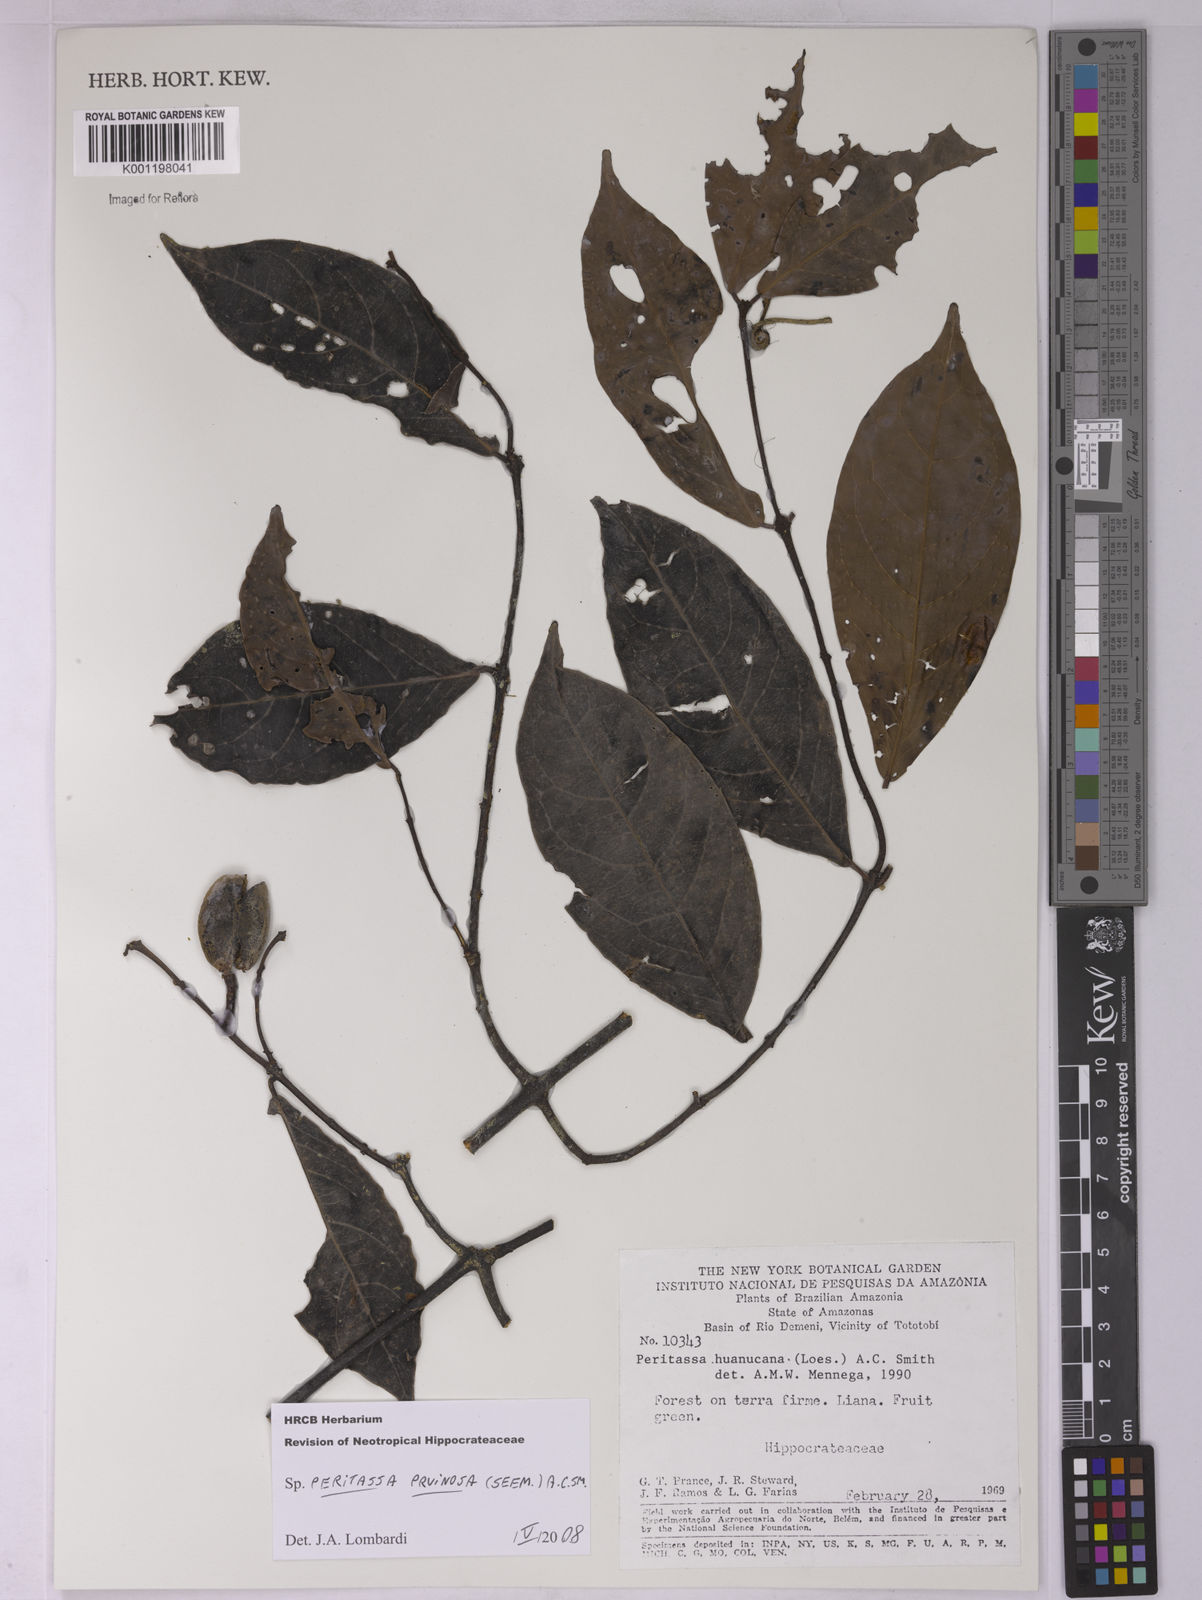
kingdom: Plantae
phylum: Tracheophyta
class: Magnoliopsida
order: Celastrales
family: Celastraceae
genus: Peritassa
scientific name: Peritassa pruinosa
